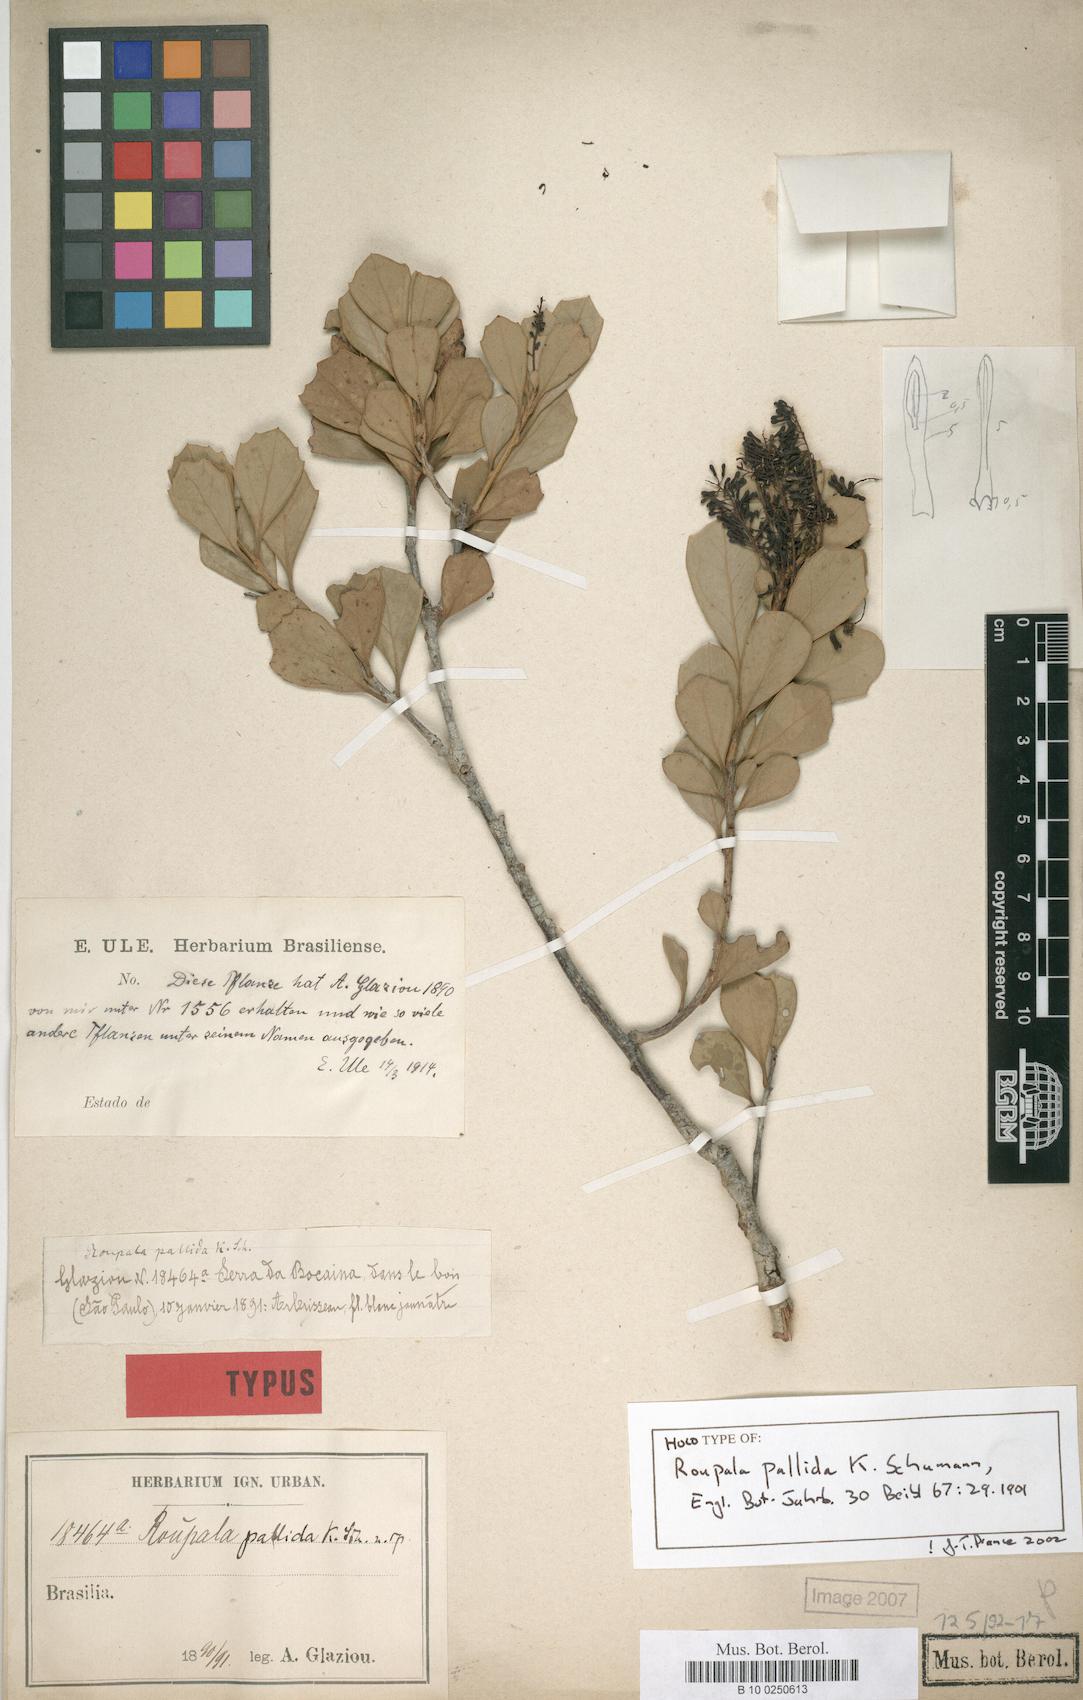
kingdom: Plantae
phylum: Tracheophyta
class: Magnoliopsida
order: Proteales
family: Proteaceae
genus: Roupala
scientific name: Roupala pallida
